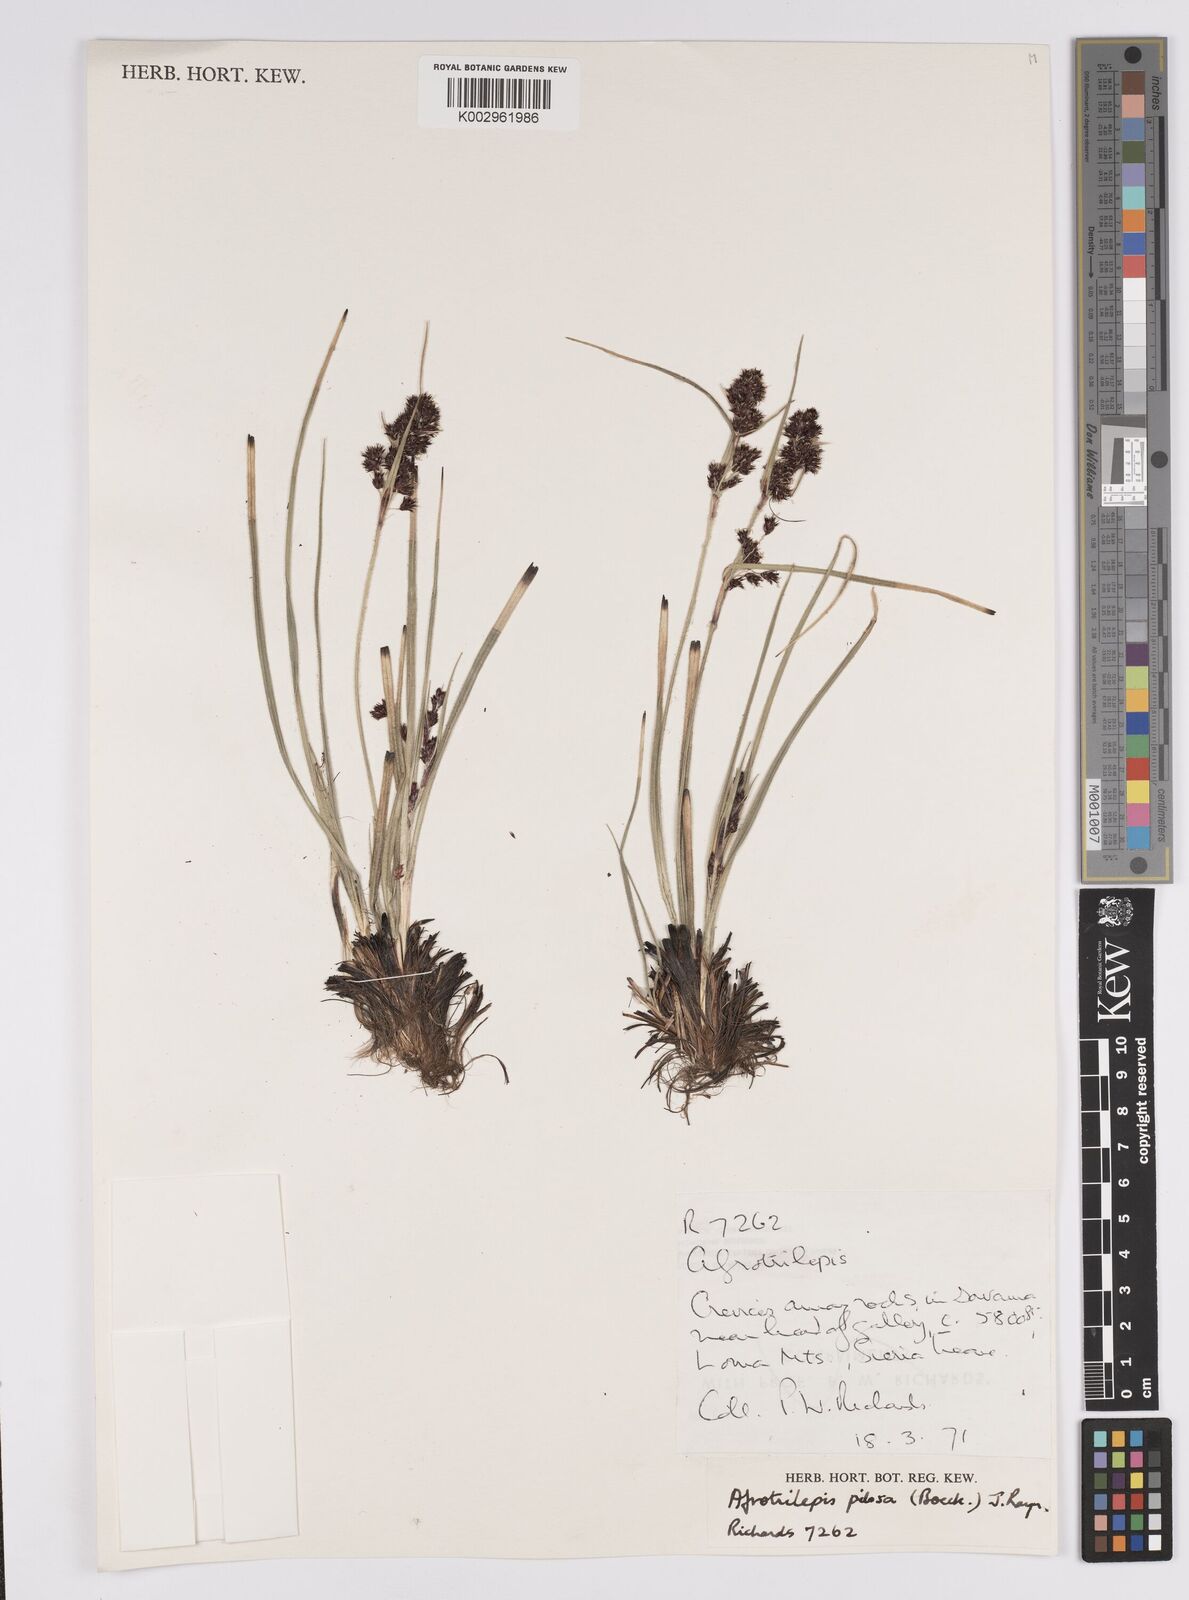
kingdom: Plantae
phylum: Tracheophyta
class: Liliopsida
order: Poales
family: Cyperaceae
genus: Afrotrilepis
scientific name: Afrotrilepis pilosa
